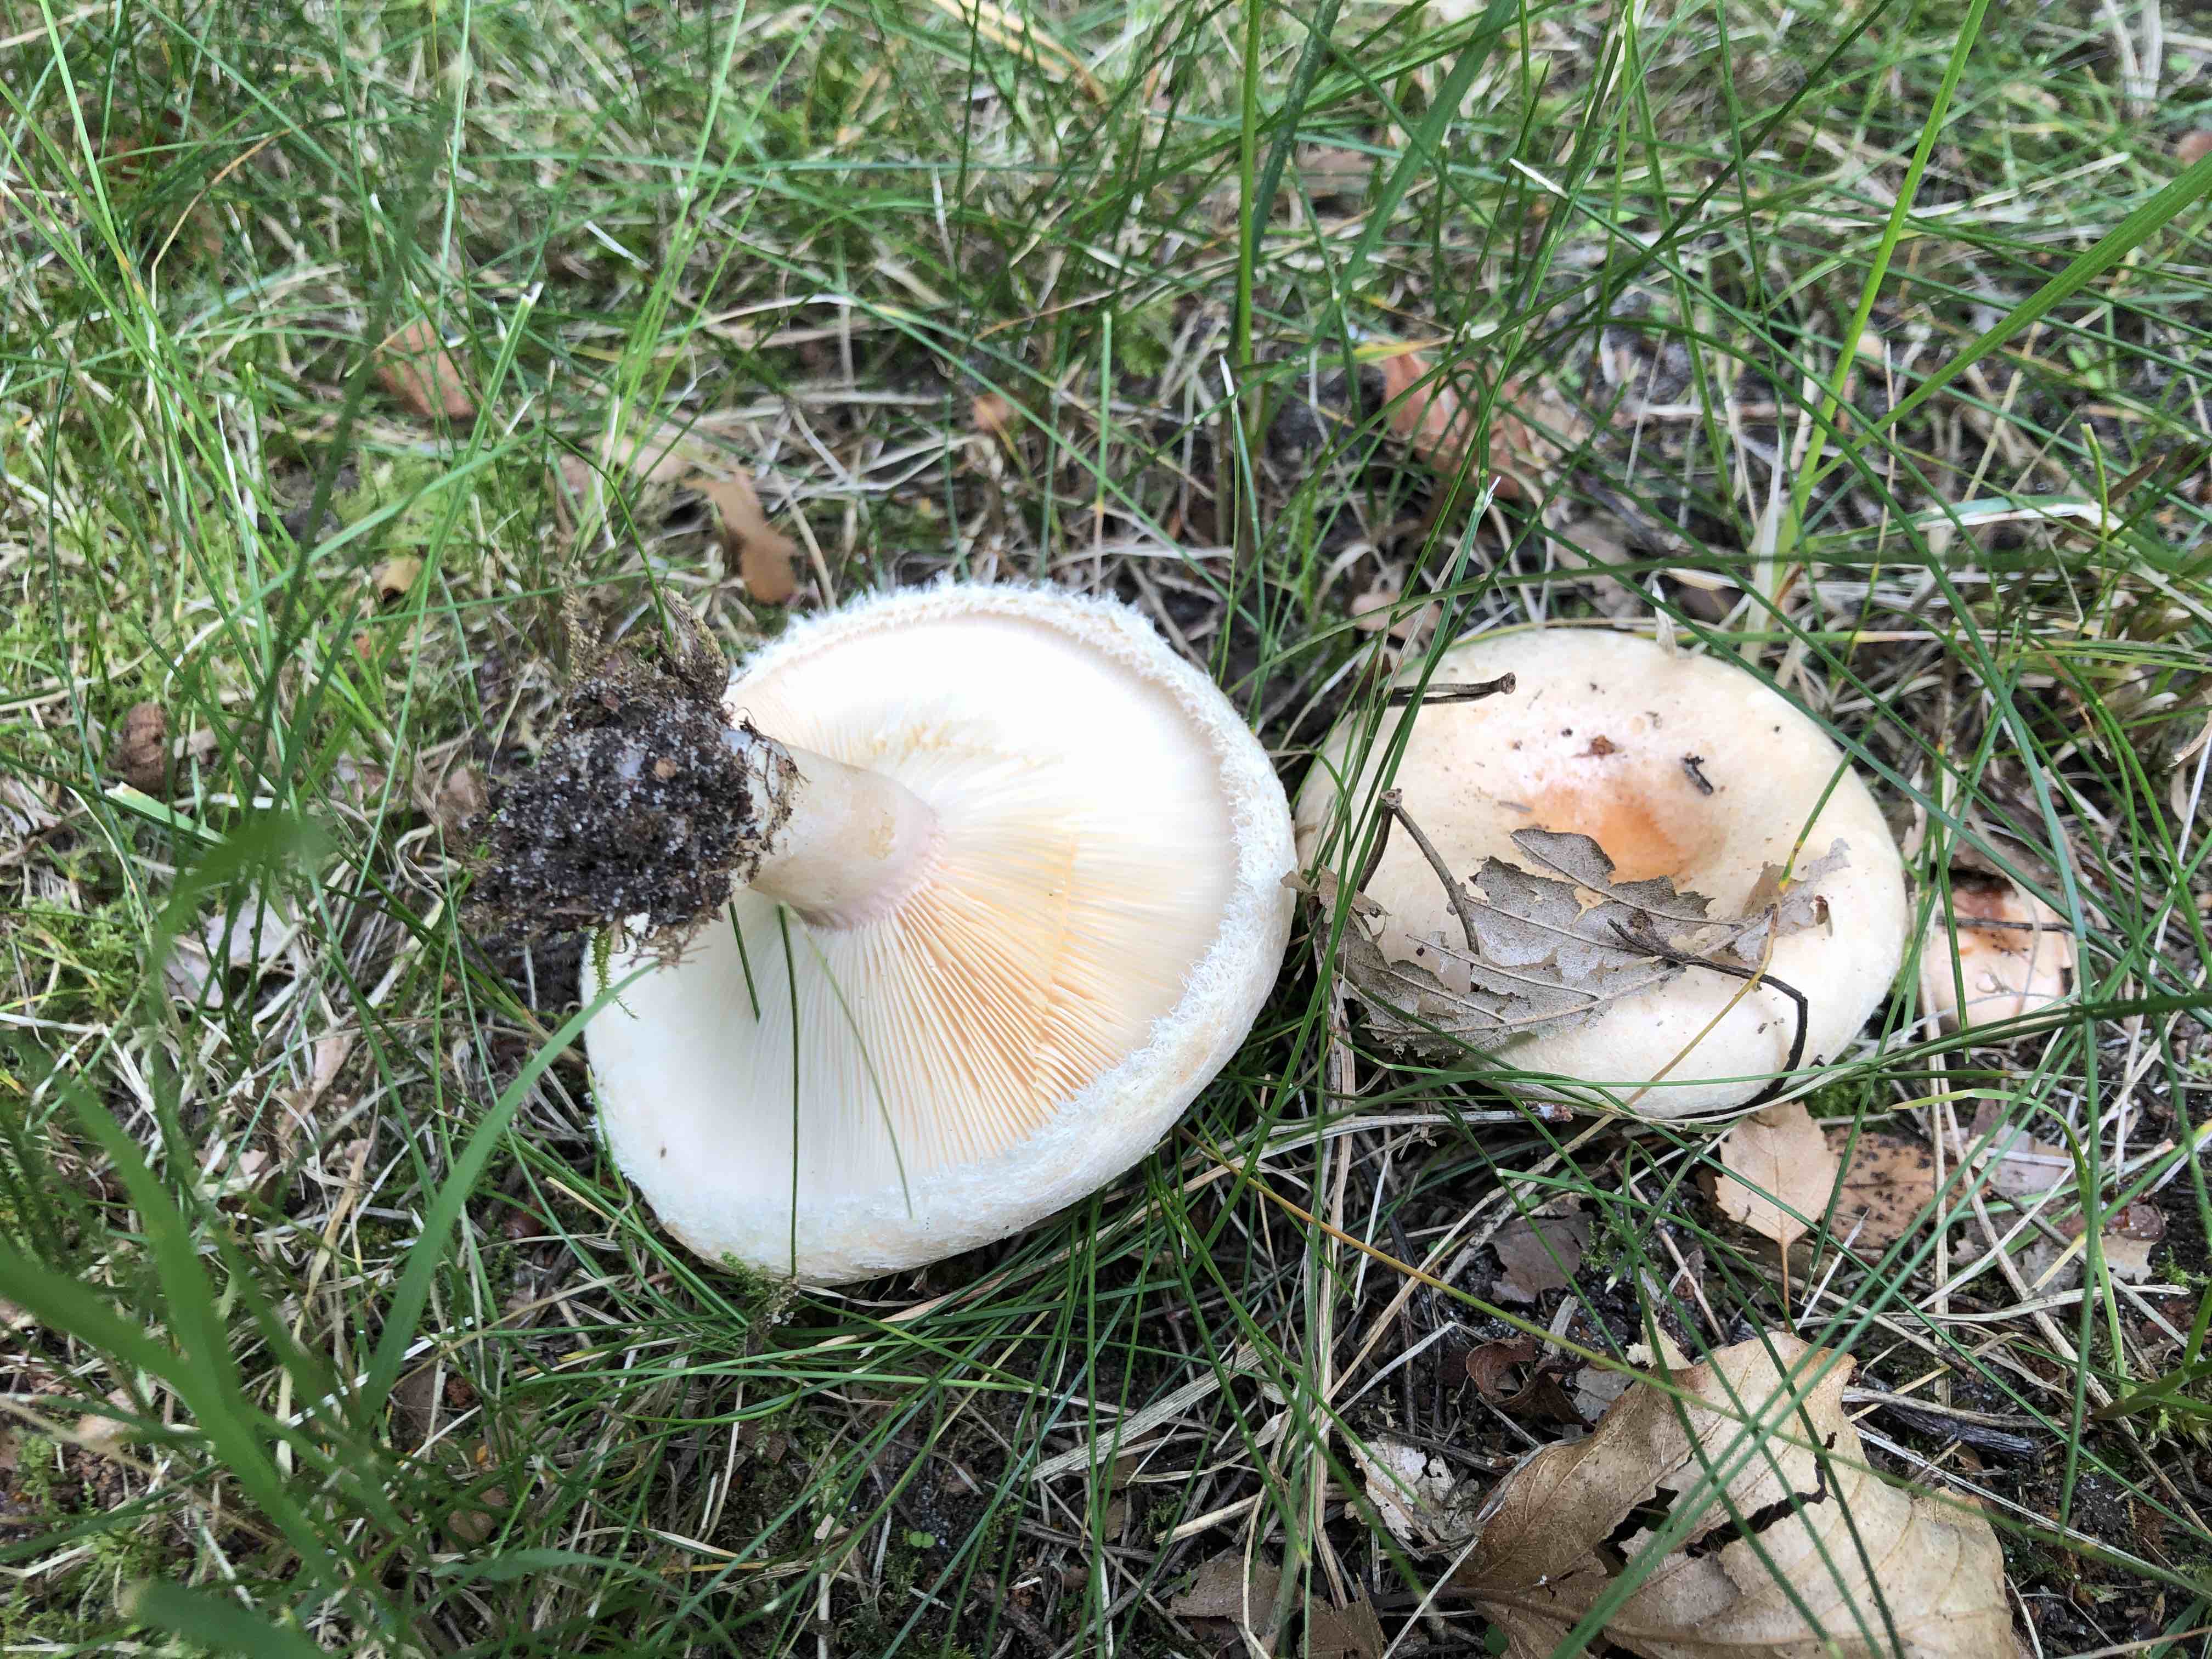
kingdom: Fungi
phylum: Basidiomycota
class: Agaricomycetes
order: Russulales
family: Russulaceae
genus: Lactarius
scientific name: Lactarius pubescens
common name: dunet mælkehat
